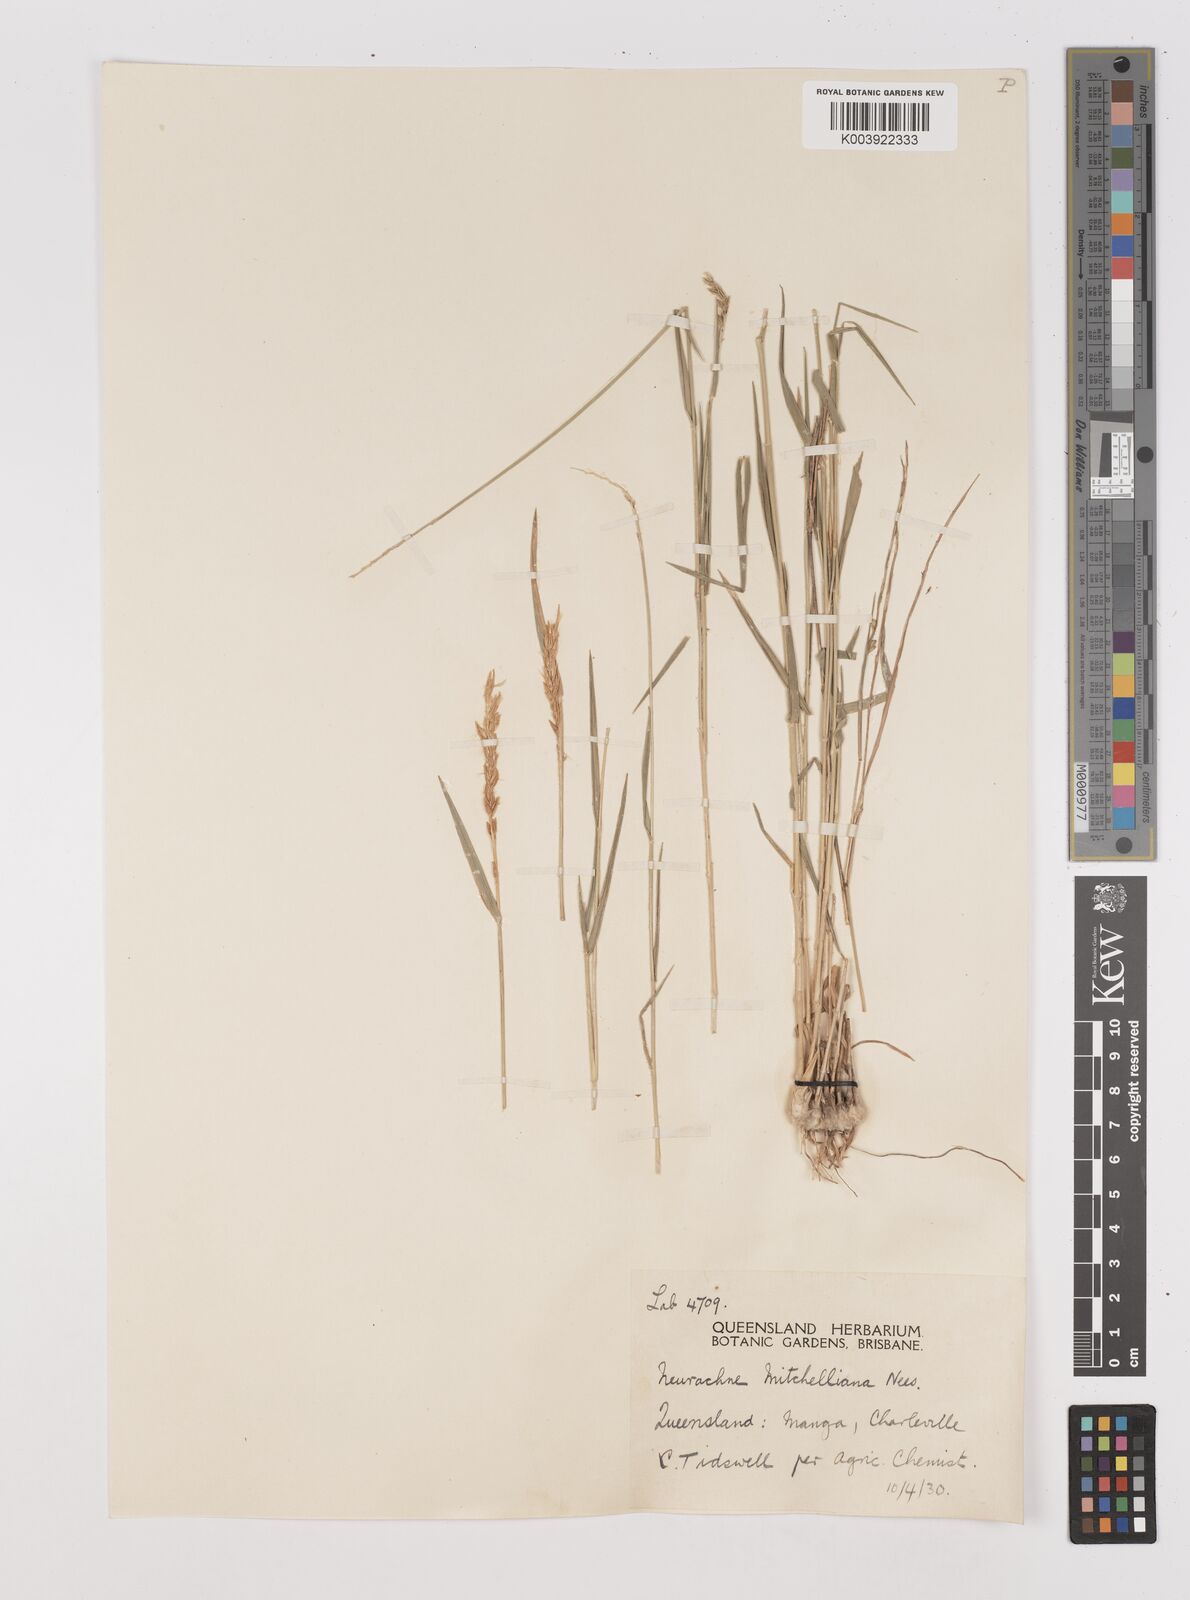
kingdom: Plantae
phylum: Tracheophyta
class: Liliopsida
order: Poales
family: Poaceae
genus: Thyridolepis
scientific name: Thyridolepis mitchelliana
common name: Rock tassel grass
